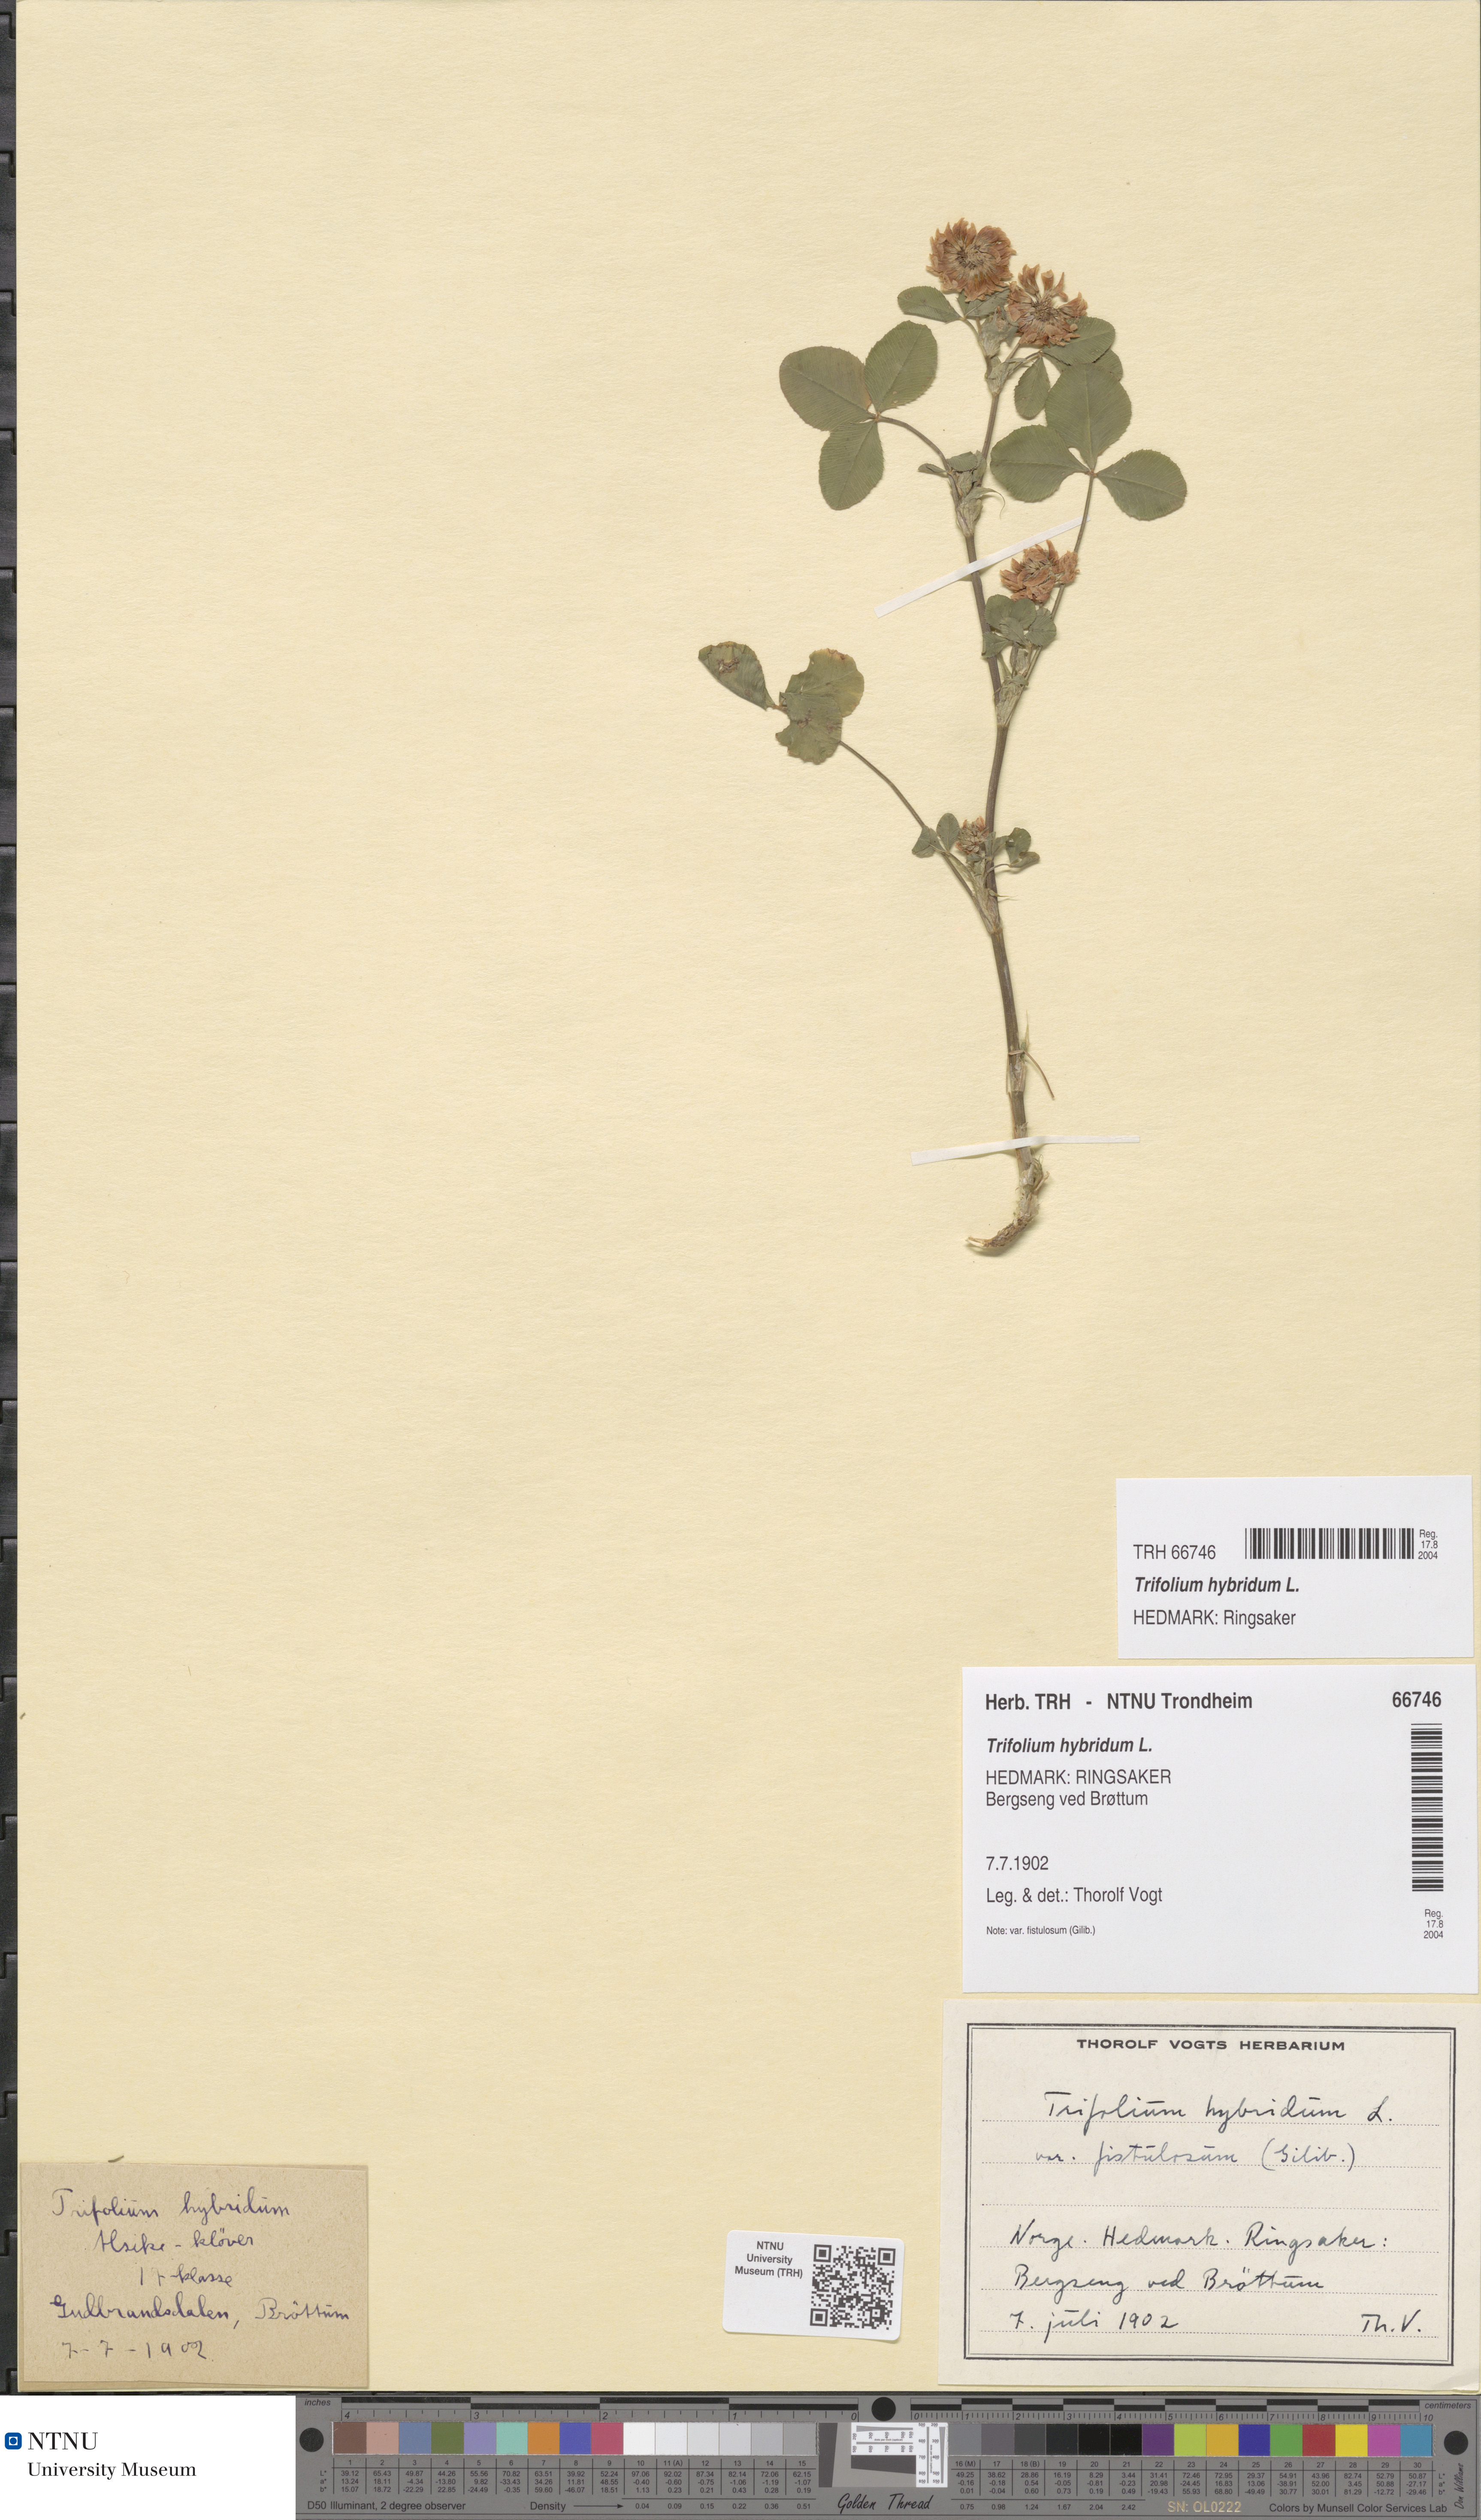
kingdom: Plantae
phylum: Tracheophyta
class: Magnoliopsida
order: Fabales
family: Fabaceae
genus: Trifolium
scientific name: Trifolium hybridum
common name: Alsike clover
